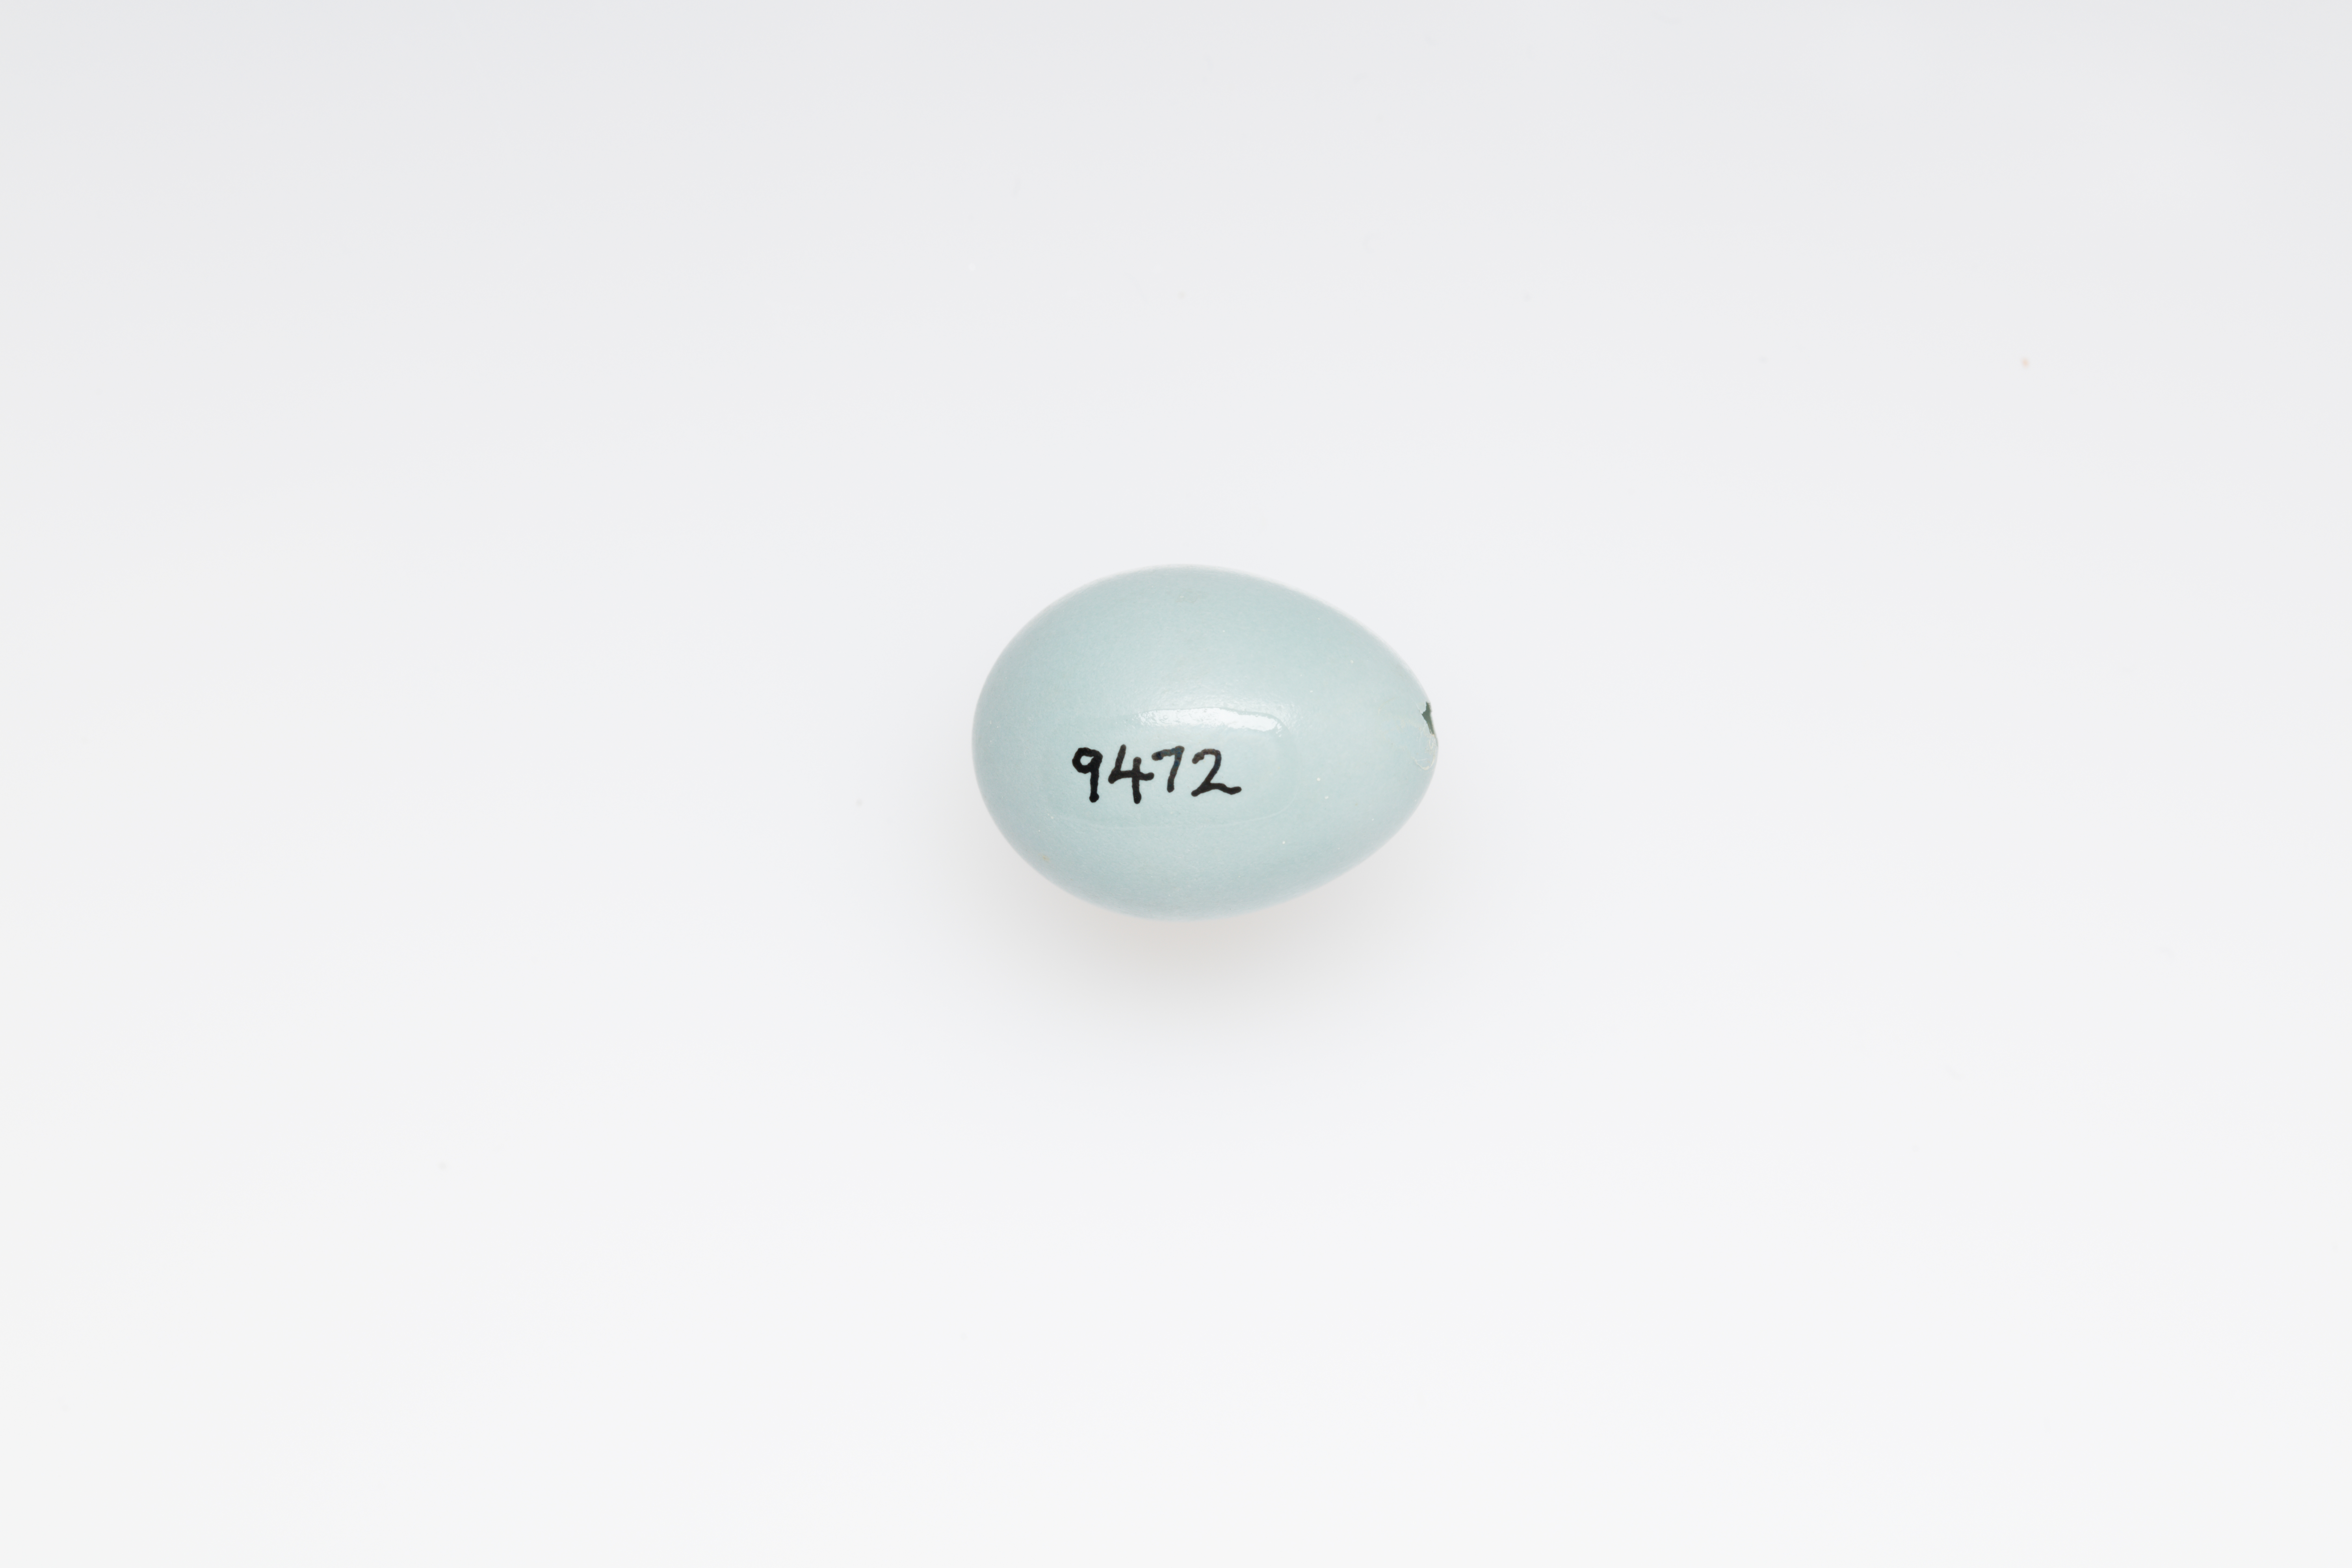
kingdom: Animalia
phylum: Chordata
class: Aves
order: Passeriformes
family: Prunellidae
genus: Prunella
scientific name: Prunella modularis
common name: Dunnock
